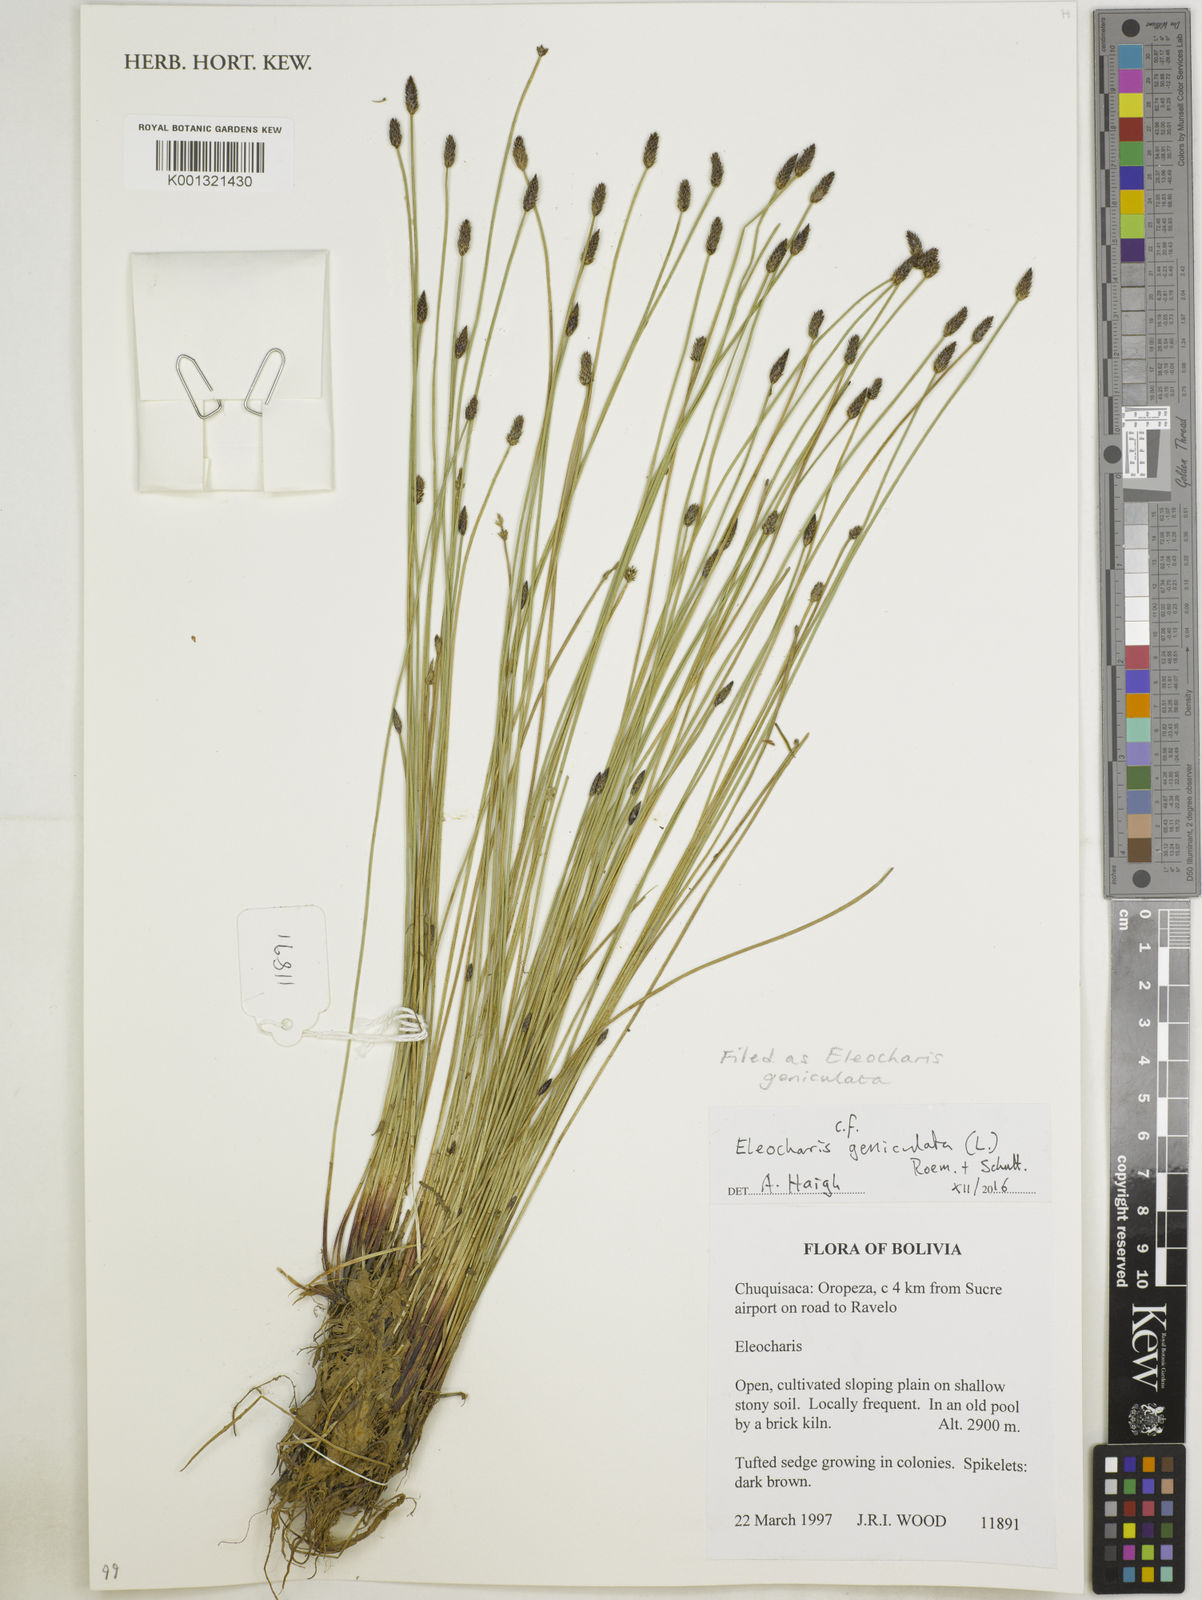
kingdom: Plantae
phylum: Tracheophyta
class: Liliopsida
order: Poales
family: Cyperaceae
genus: Eleocharis
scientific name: Eleocharis geniculata
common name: Canada spikesedge
